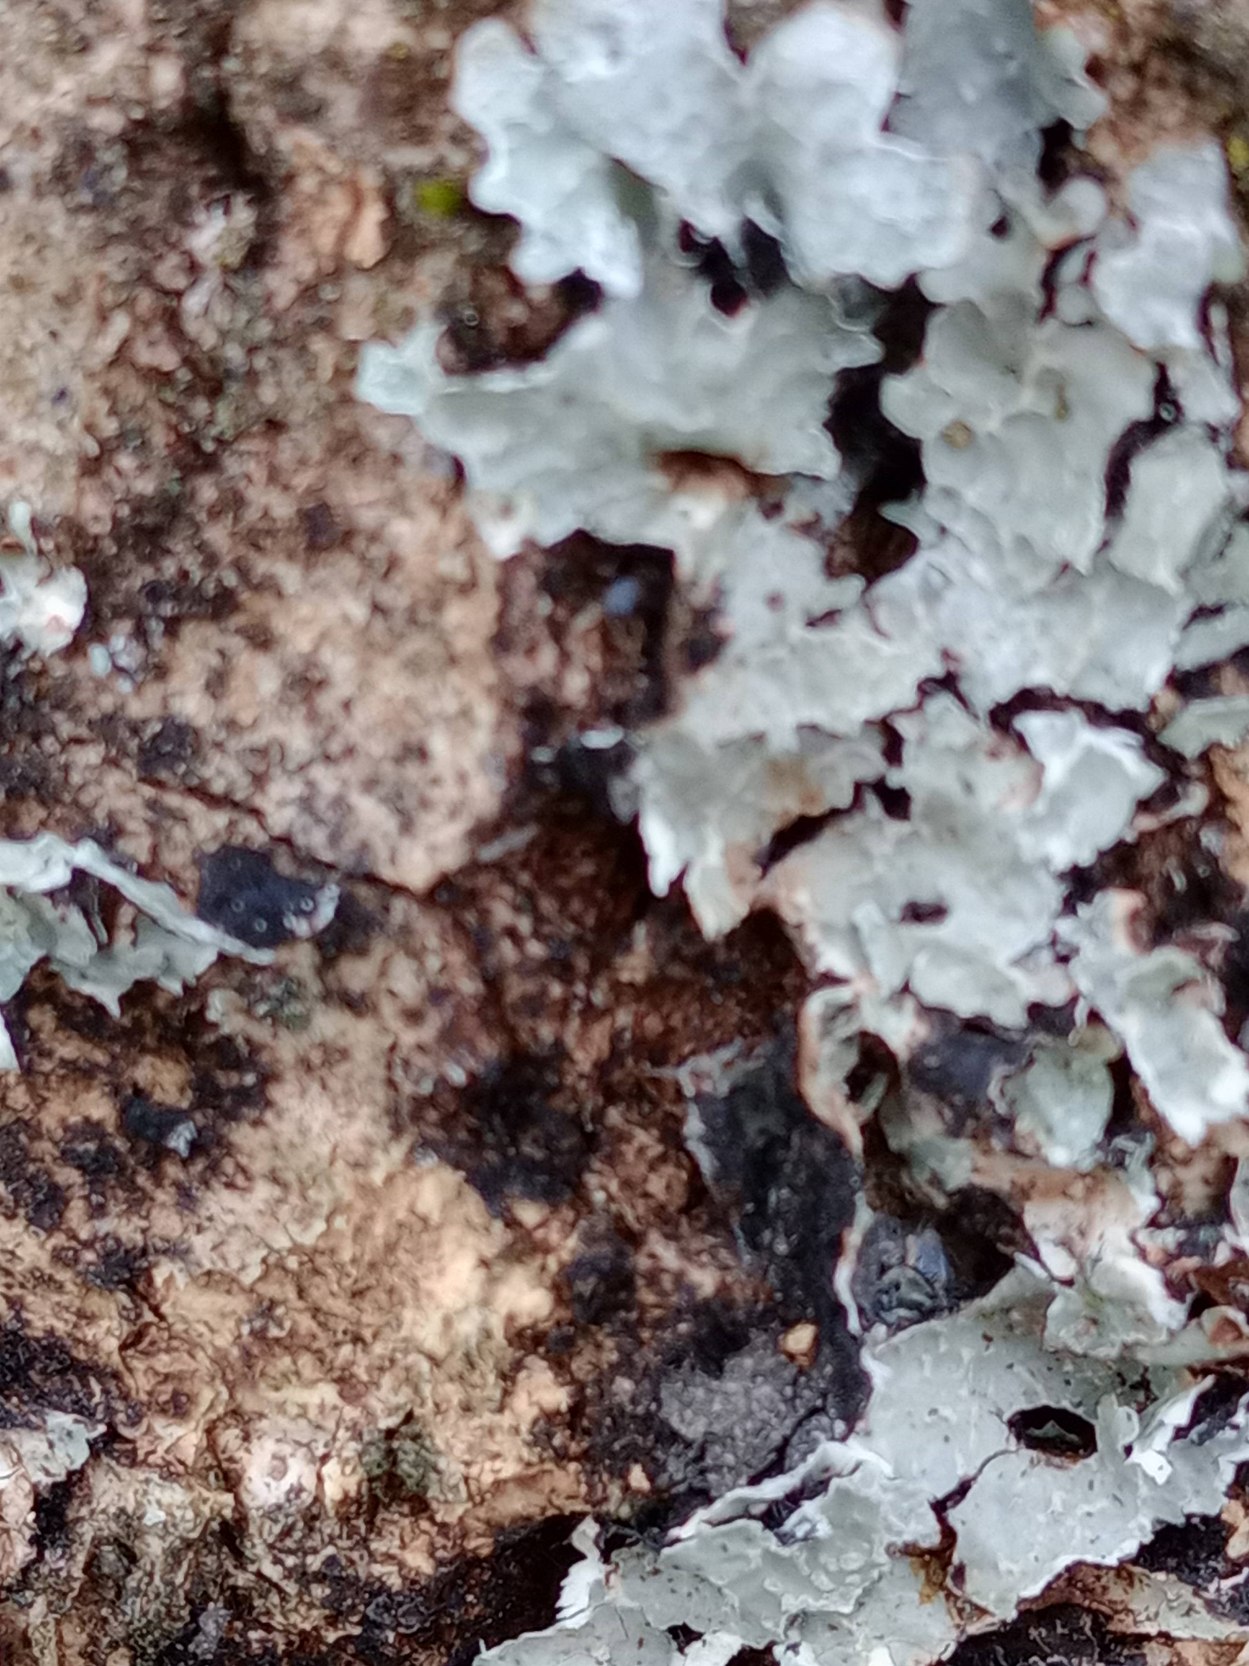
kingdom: Fungi
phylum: Ascomycota
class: Lecanoromycetes
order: Lecanorales
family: Parmeliaceae
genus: Parmelia
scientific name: Parmelia sulcata
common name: Rynket skållav
